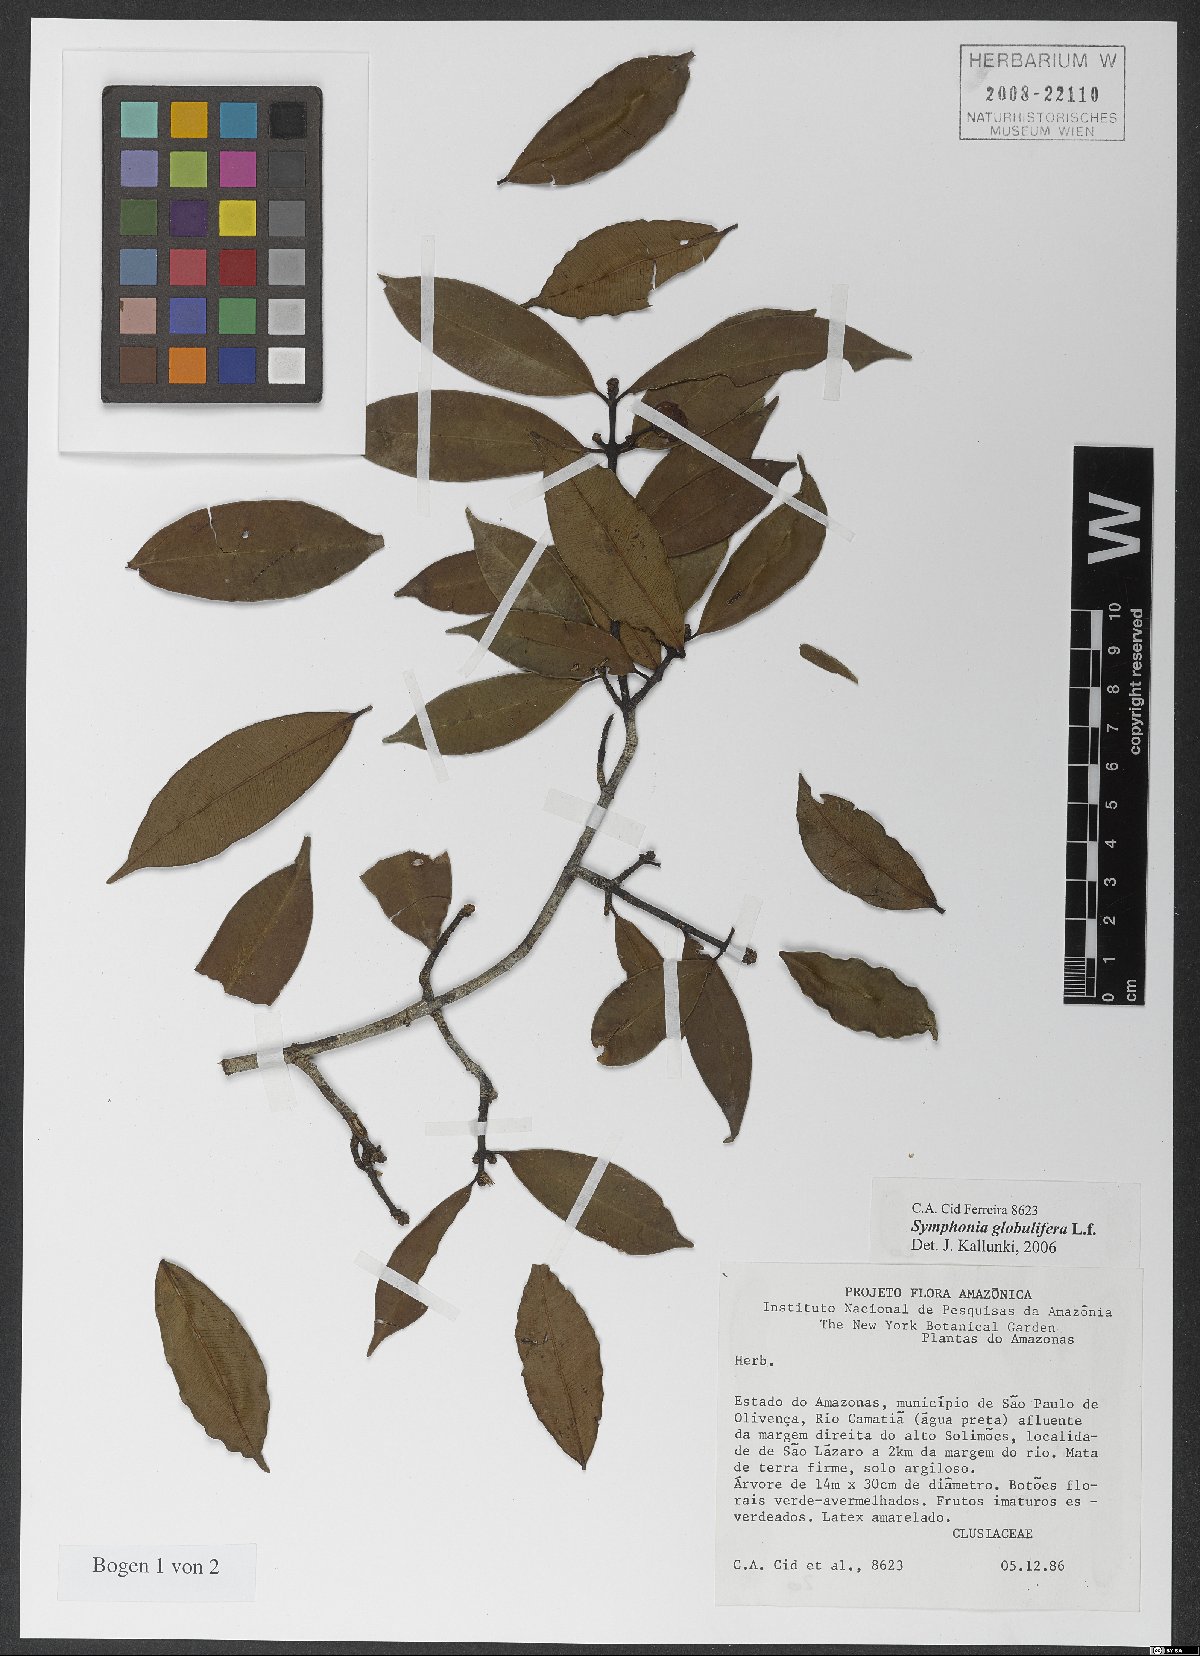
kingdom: Plantae
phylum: Tracheophyta
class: Magnoliopsida
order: Malpighiales
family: Clusiaceae
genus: Symphonia
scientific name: Symphonia globulifera
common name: Boarwood
